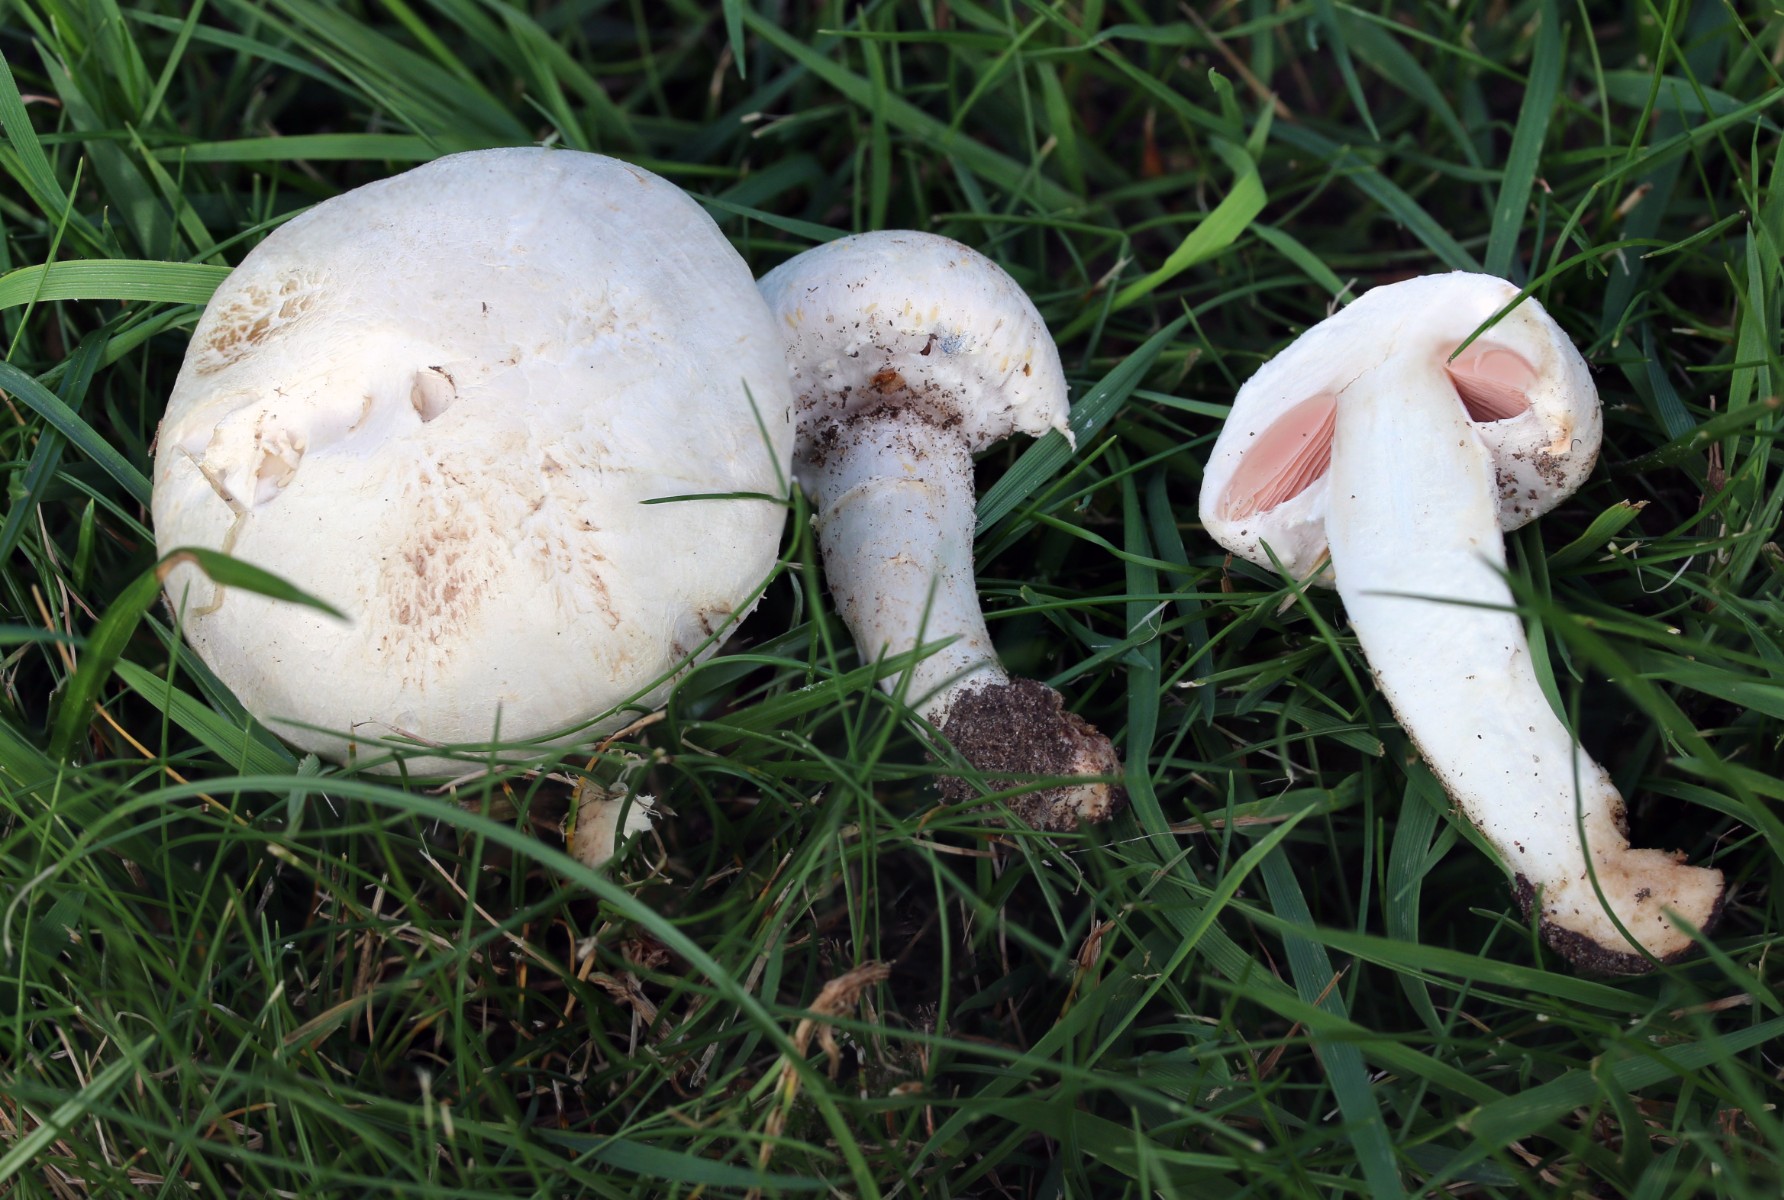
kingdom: Fungi
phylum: Basidiomycota
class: Agaricomycetes
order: Agaricales
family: Agaricaceae
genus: Agaricus
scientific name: Agaricus campestris
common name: mark-champignon
